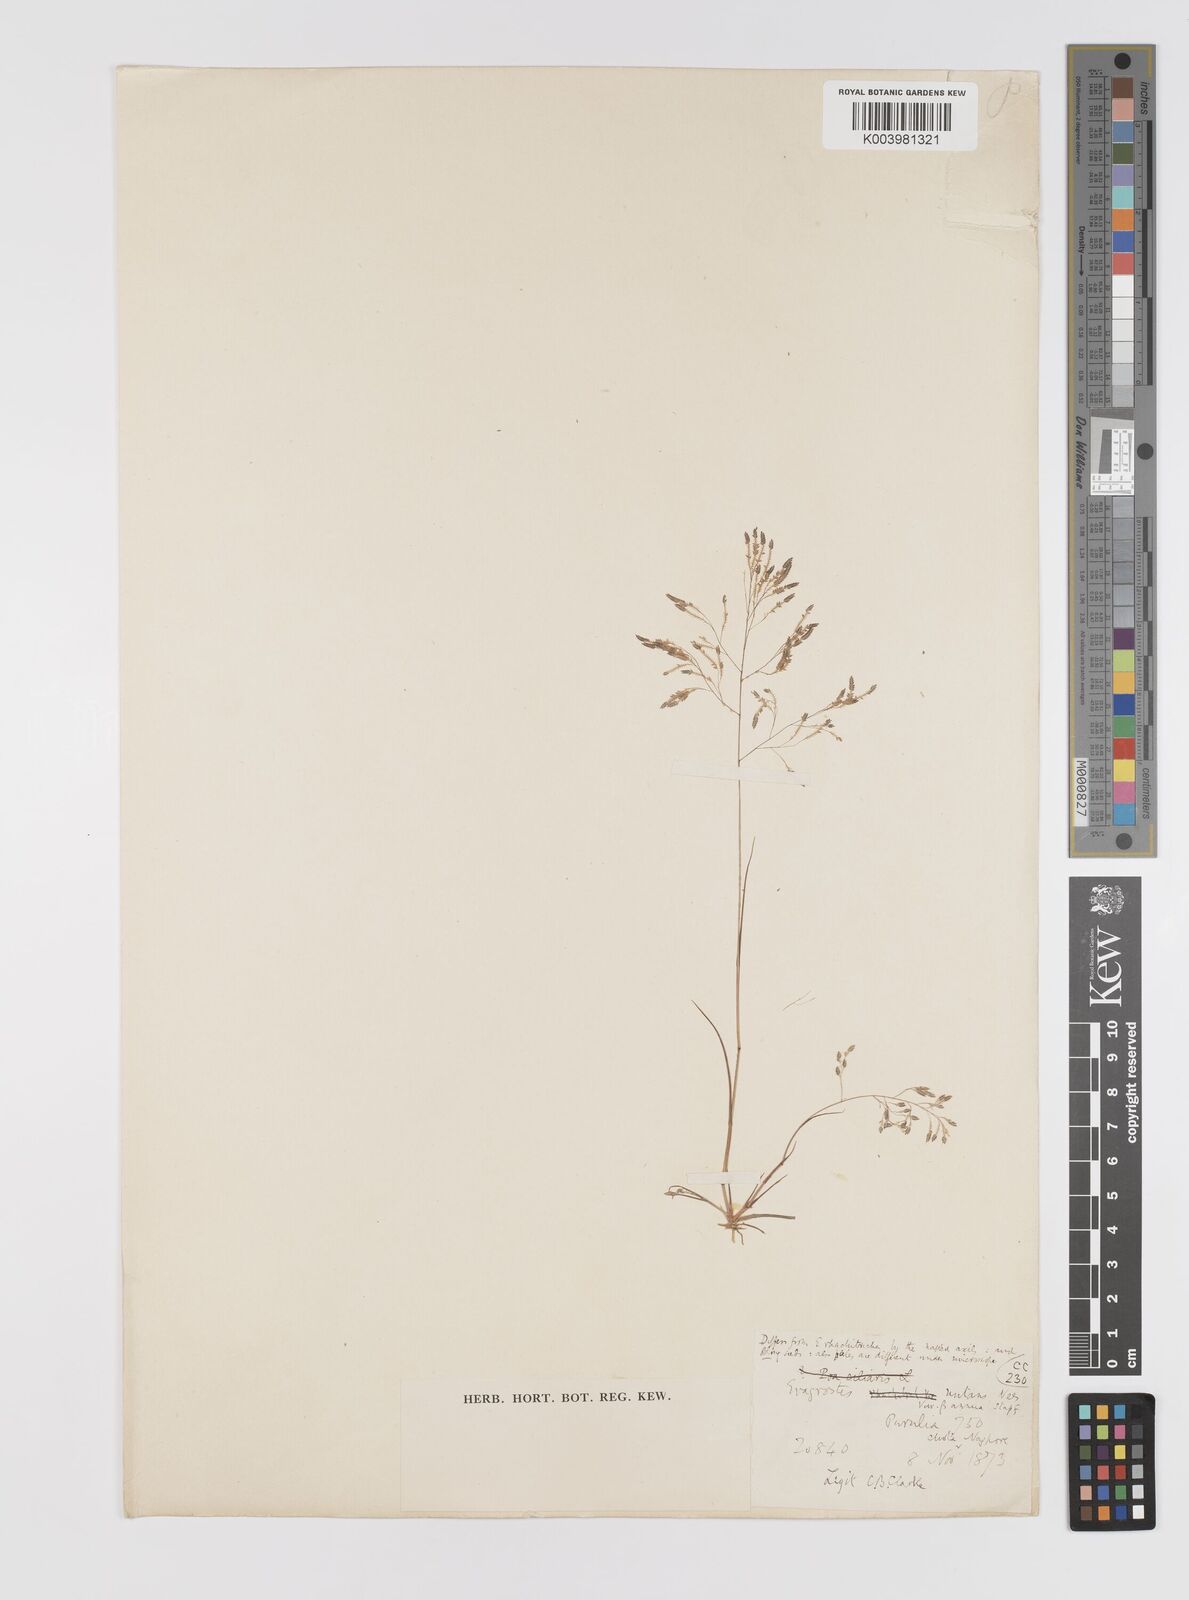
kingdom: Plantae
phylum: Tracheophyta
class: Liliopsida
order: Poales
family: Poaceae
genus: Eragrostis
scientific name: Eragrostis gangetica
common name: Slimflower lovegrass
